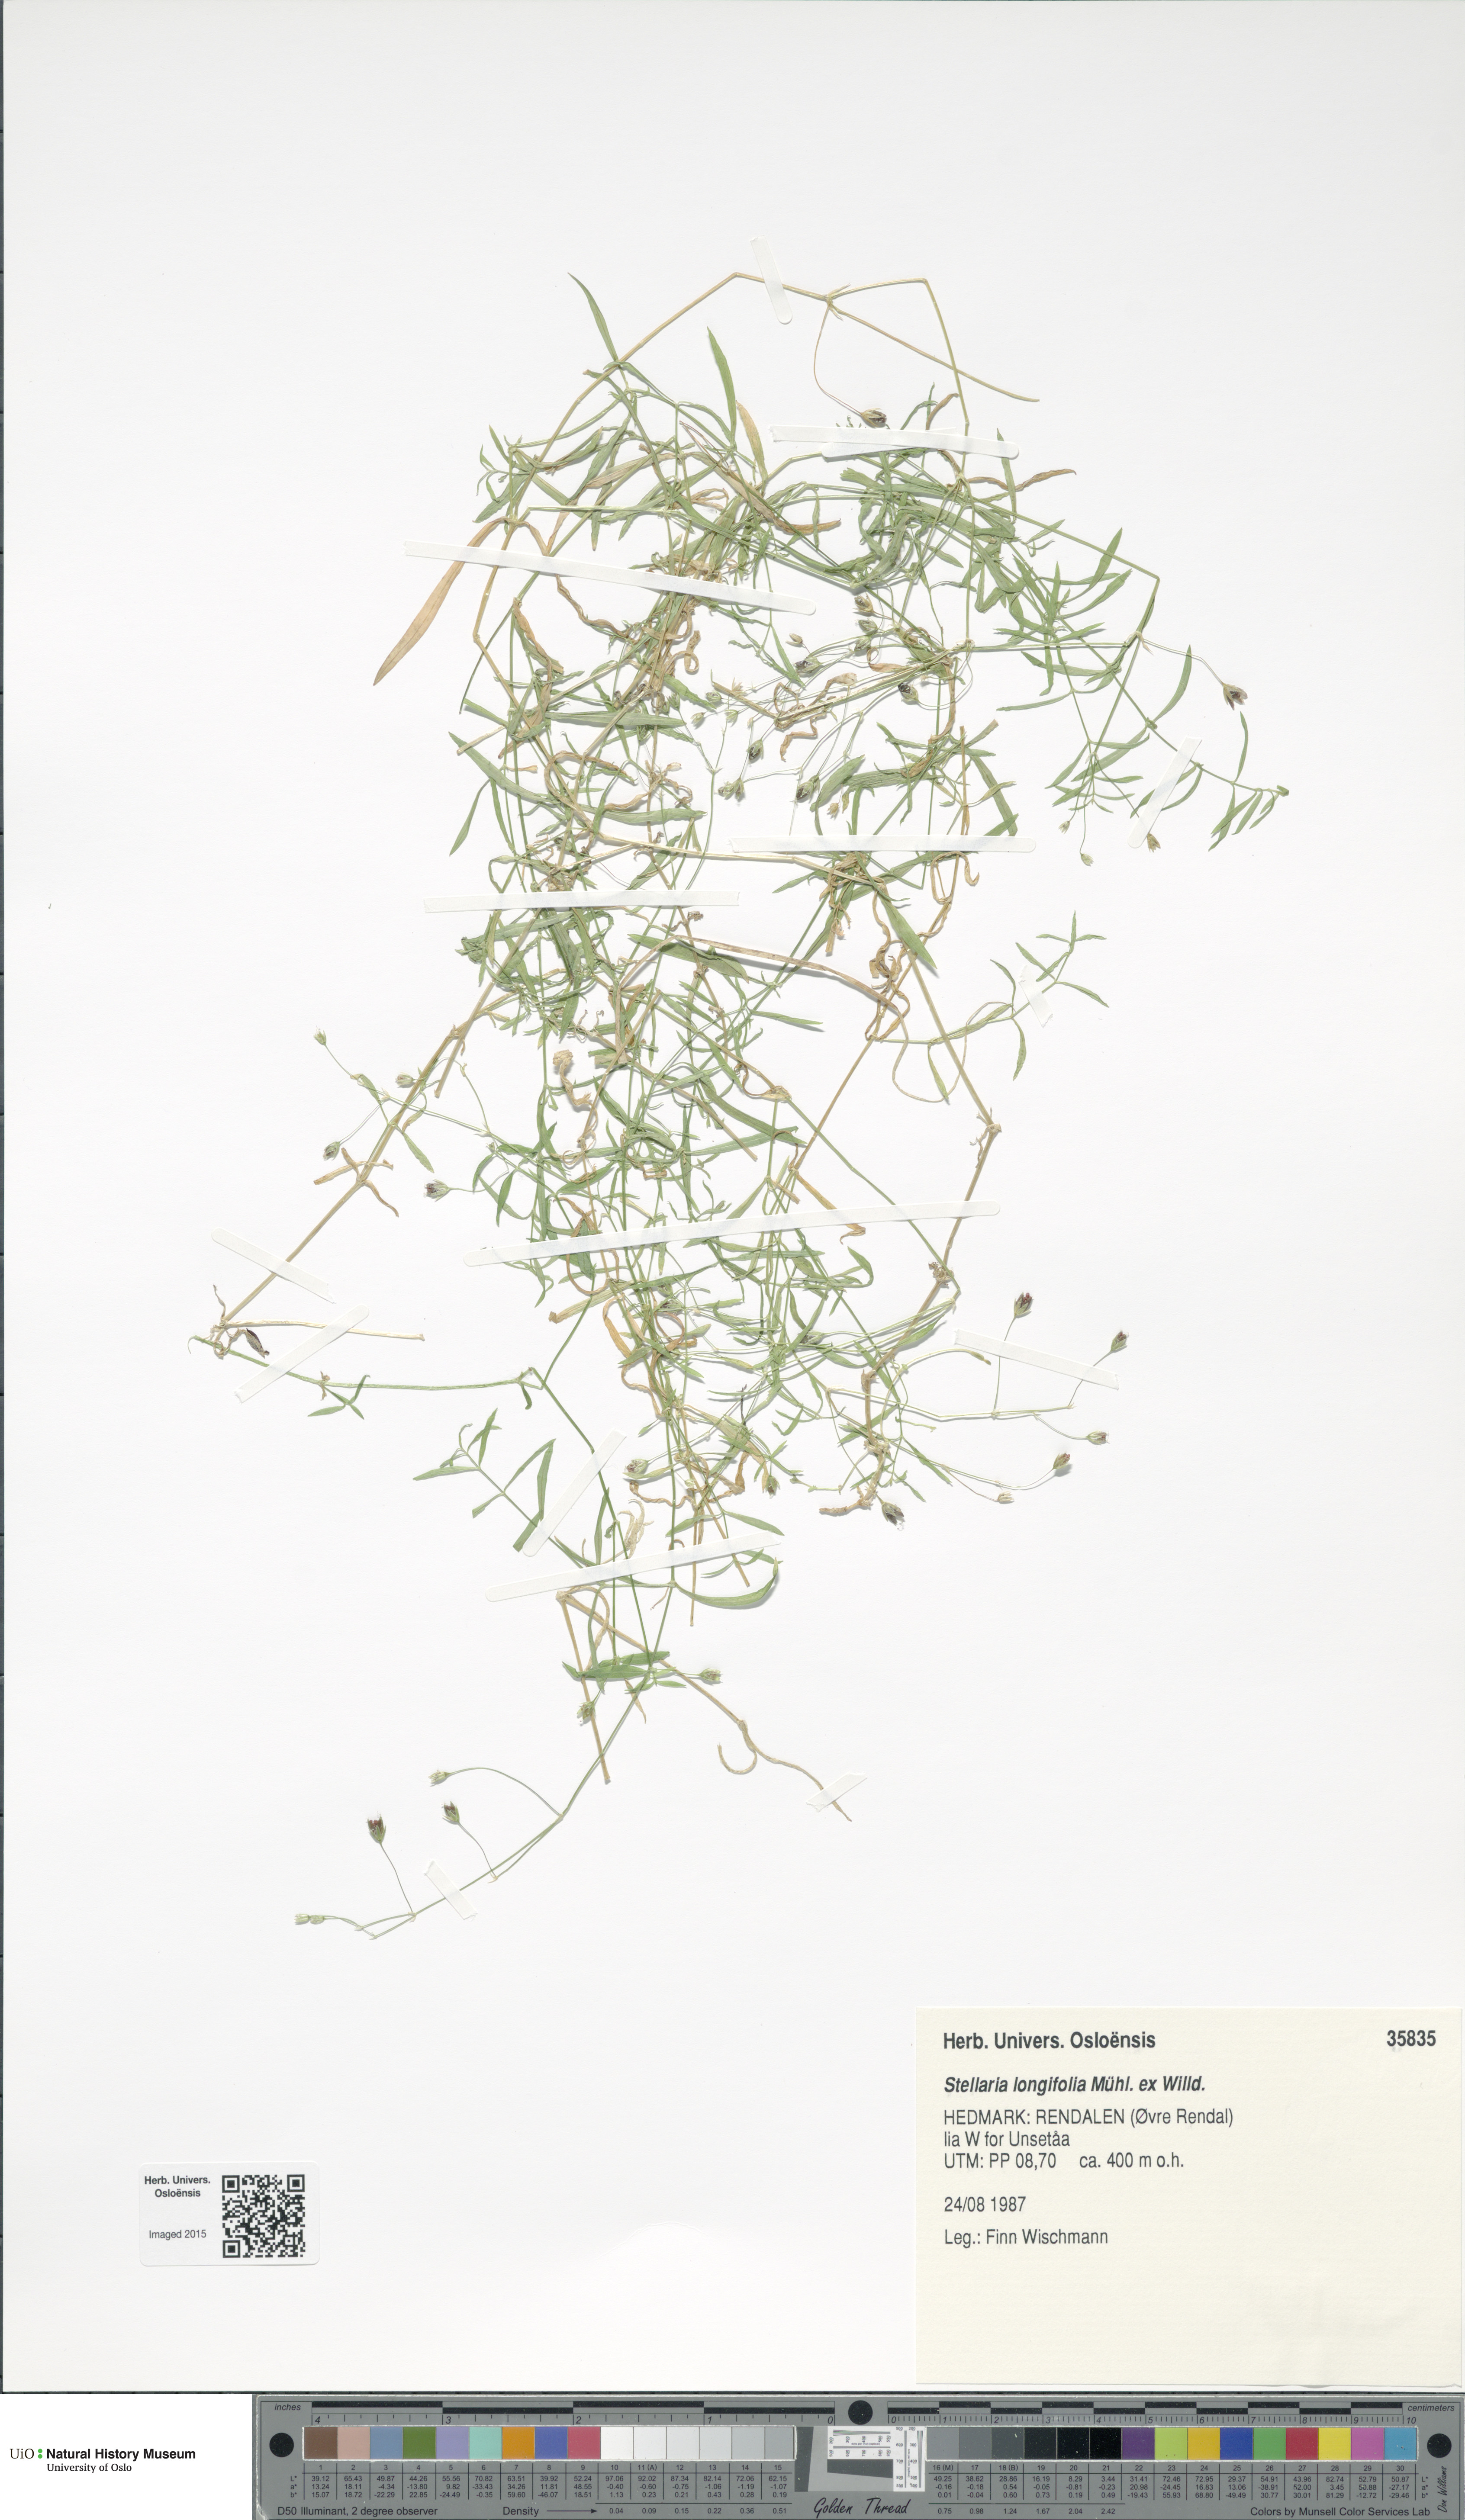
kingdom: Plantae
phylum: Tracheophyta
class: Magnoliopsida
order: Caryophyllales
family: Caryophyllaceae
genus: Stellaria
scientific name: Stellaria longifolia
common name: Long-leaved chickweed
